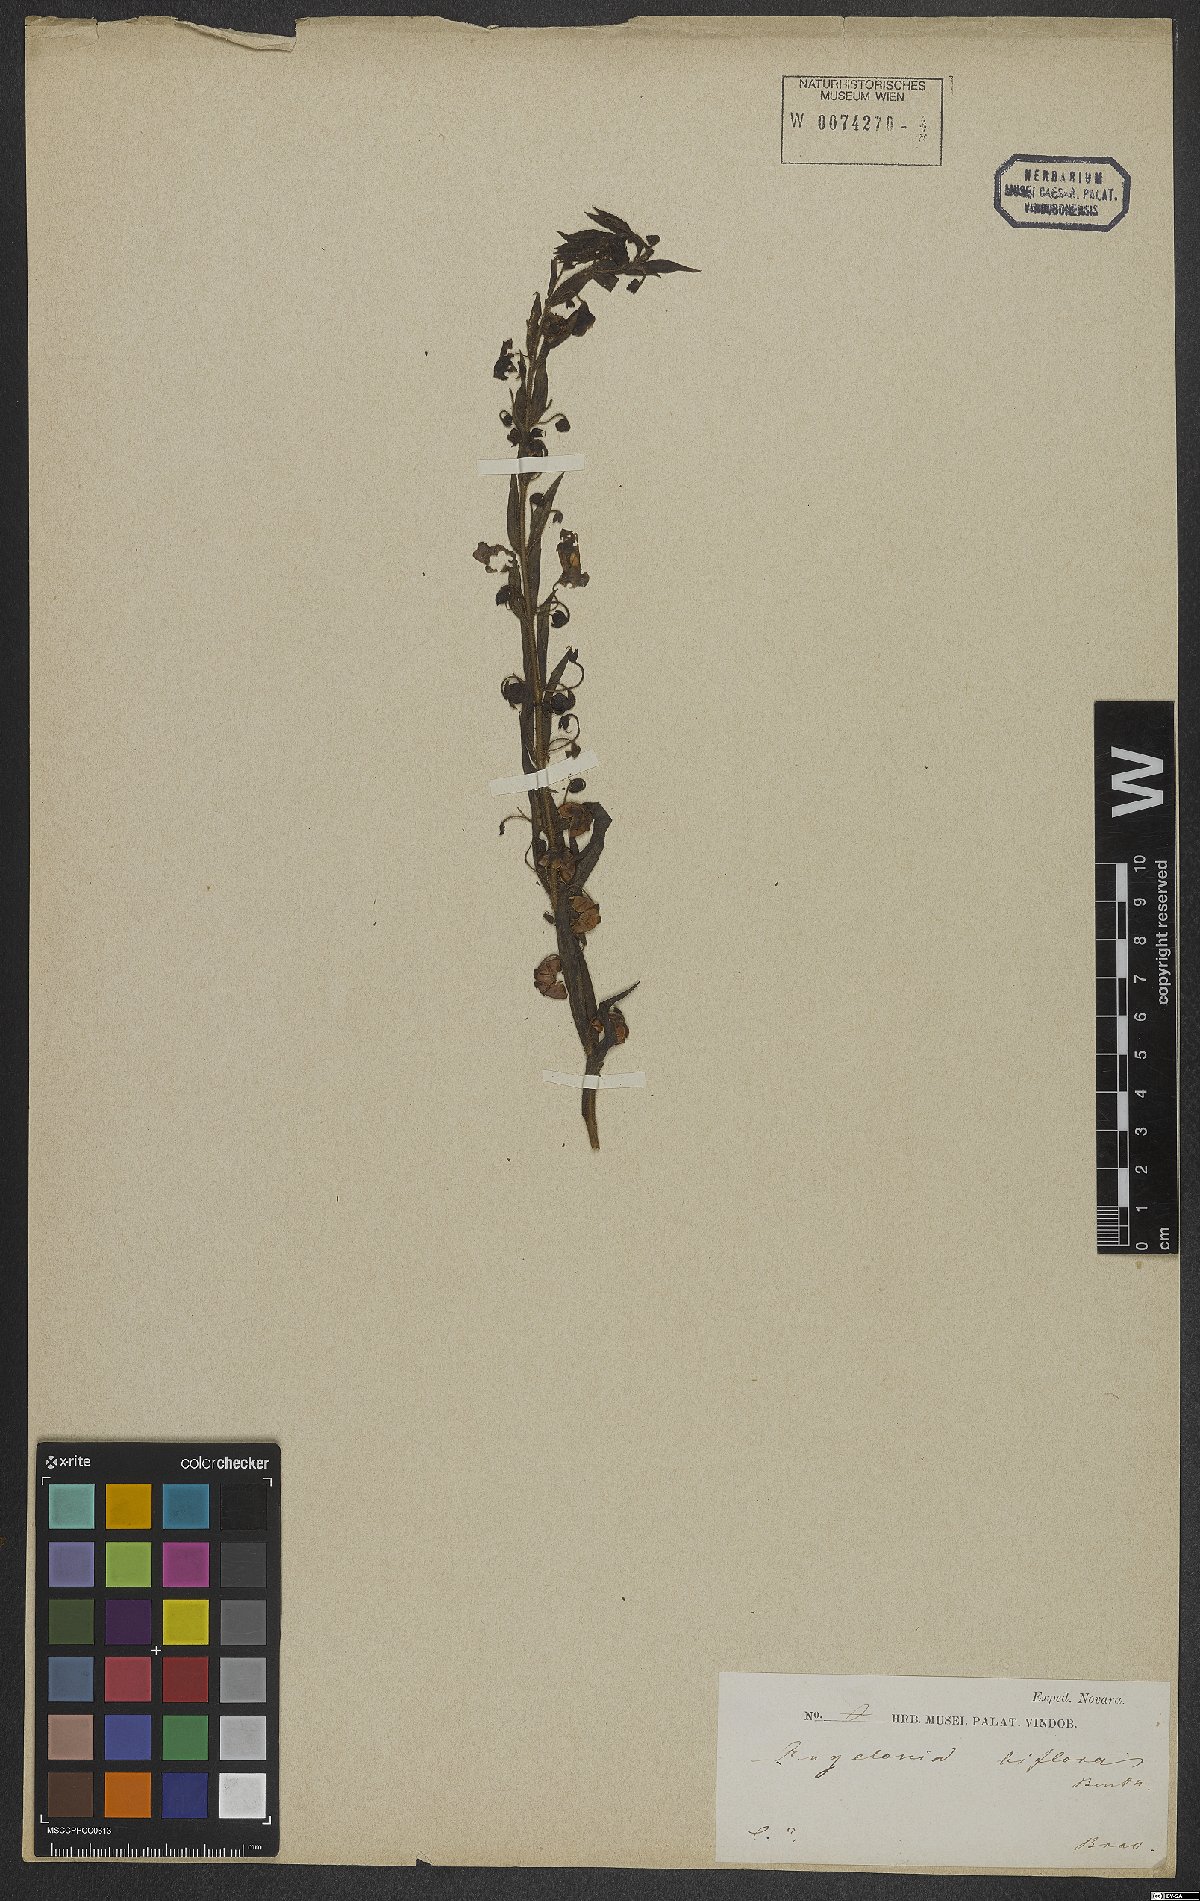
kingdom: Plantae
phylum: Tracheophyta
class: Magnoliopsida
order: Lamiales
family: Plantaginaceae
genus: Angelonia
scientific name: Angelonia biflora
